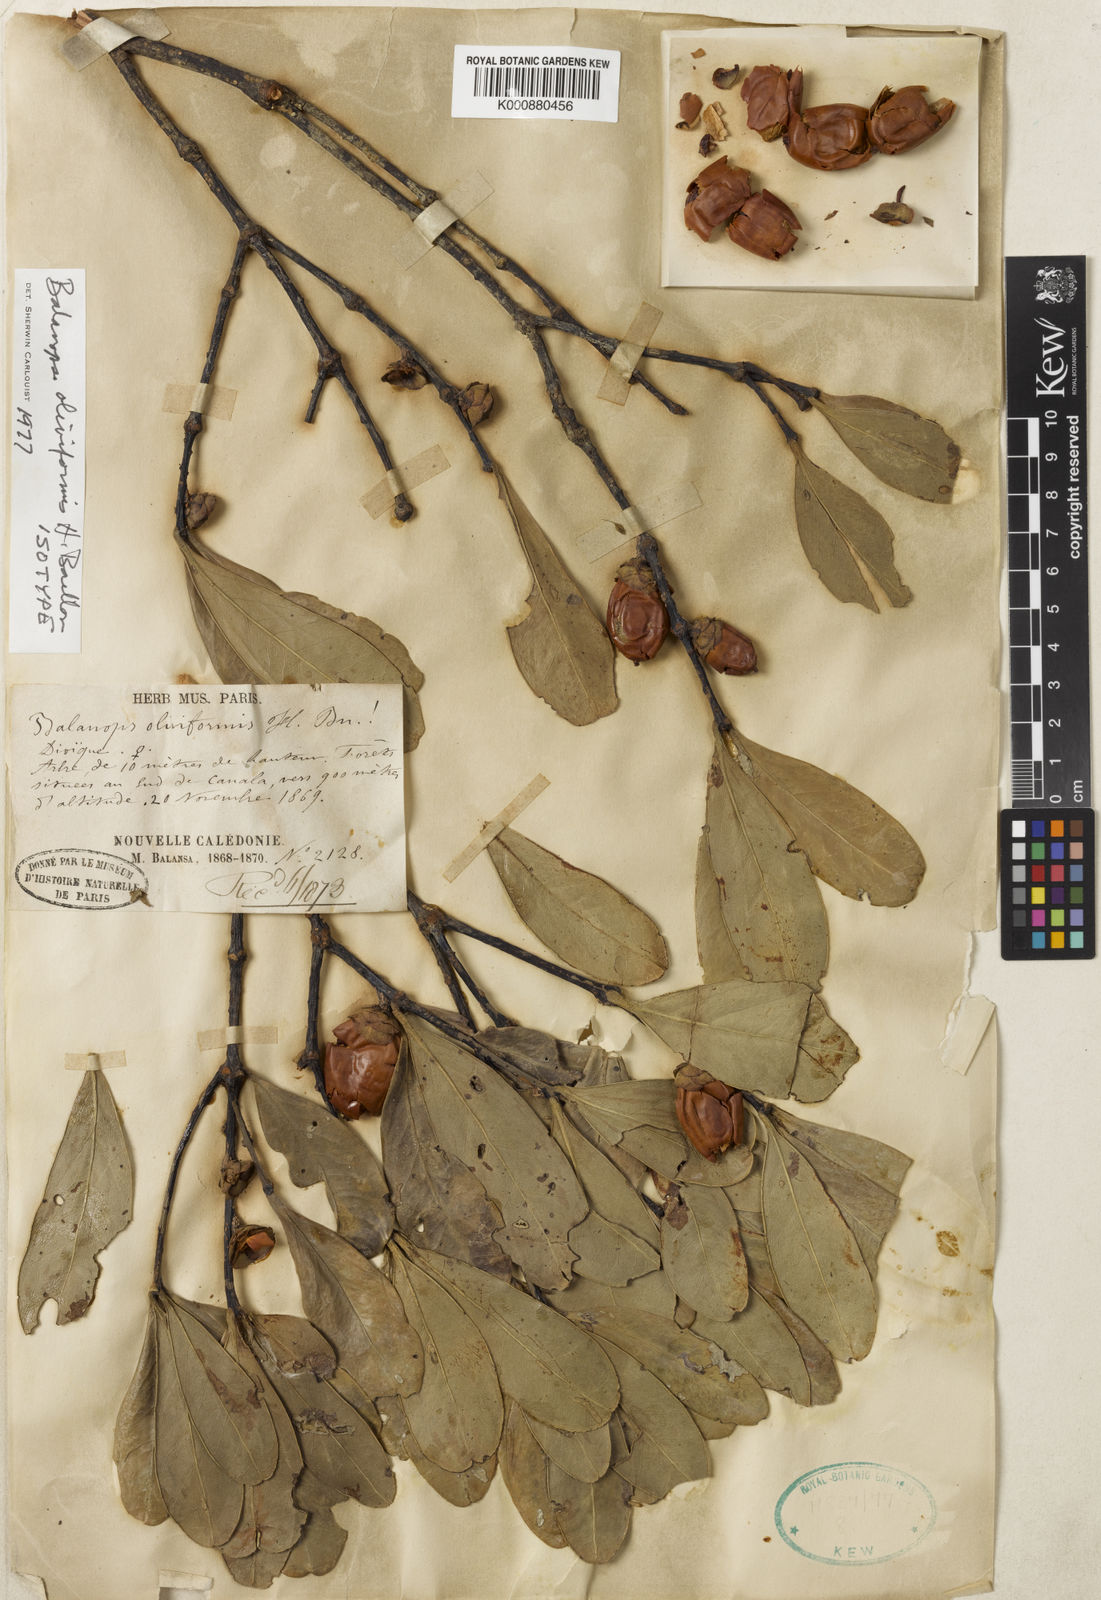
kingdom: Plantae
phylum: Tracheophyta
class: Magnoliopsida
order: Malpighiales
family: Balanopaceae
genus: Balanops
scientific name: Balanops oliviformis
